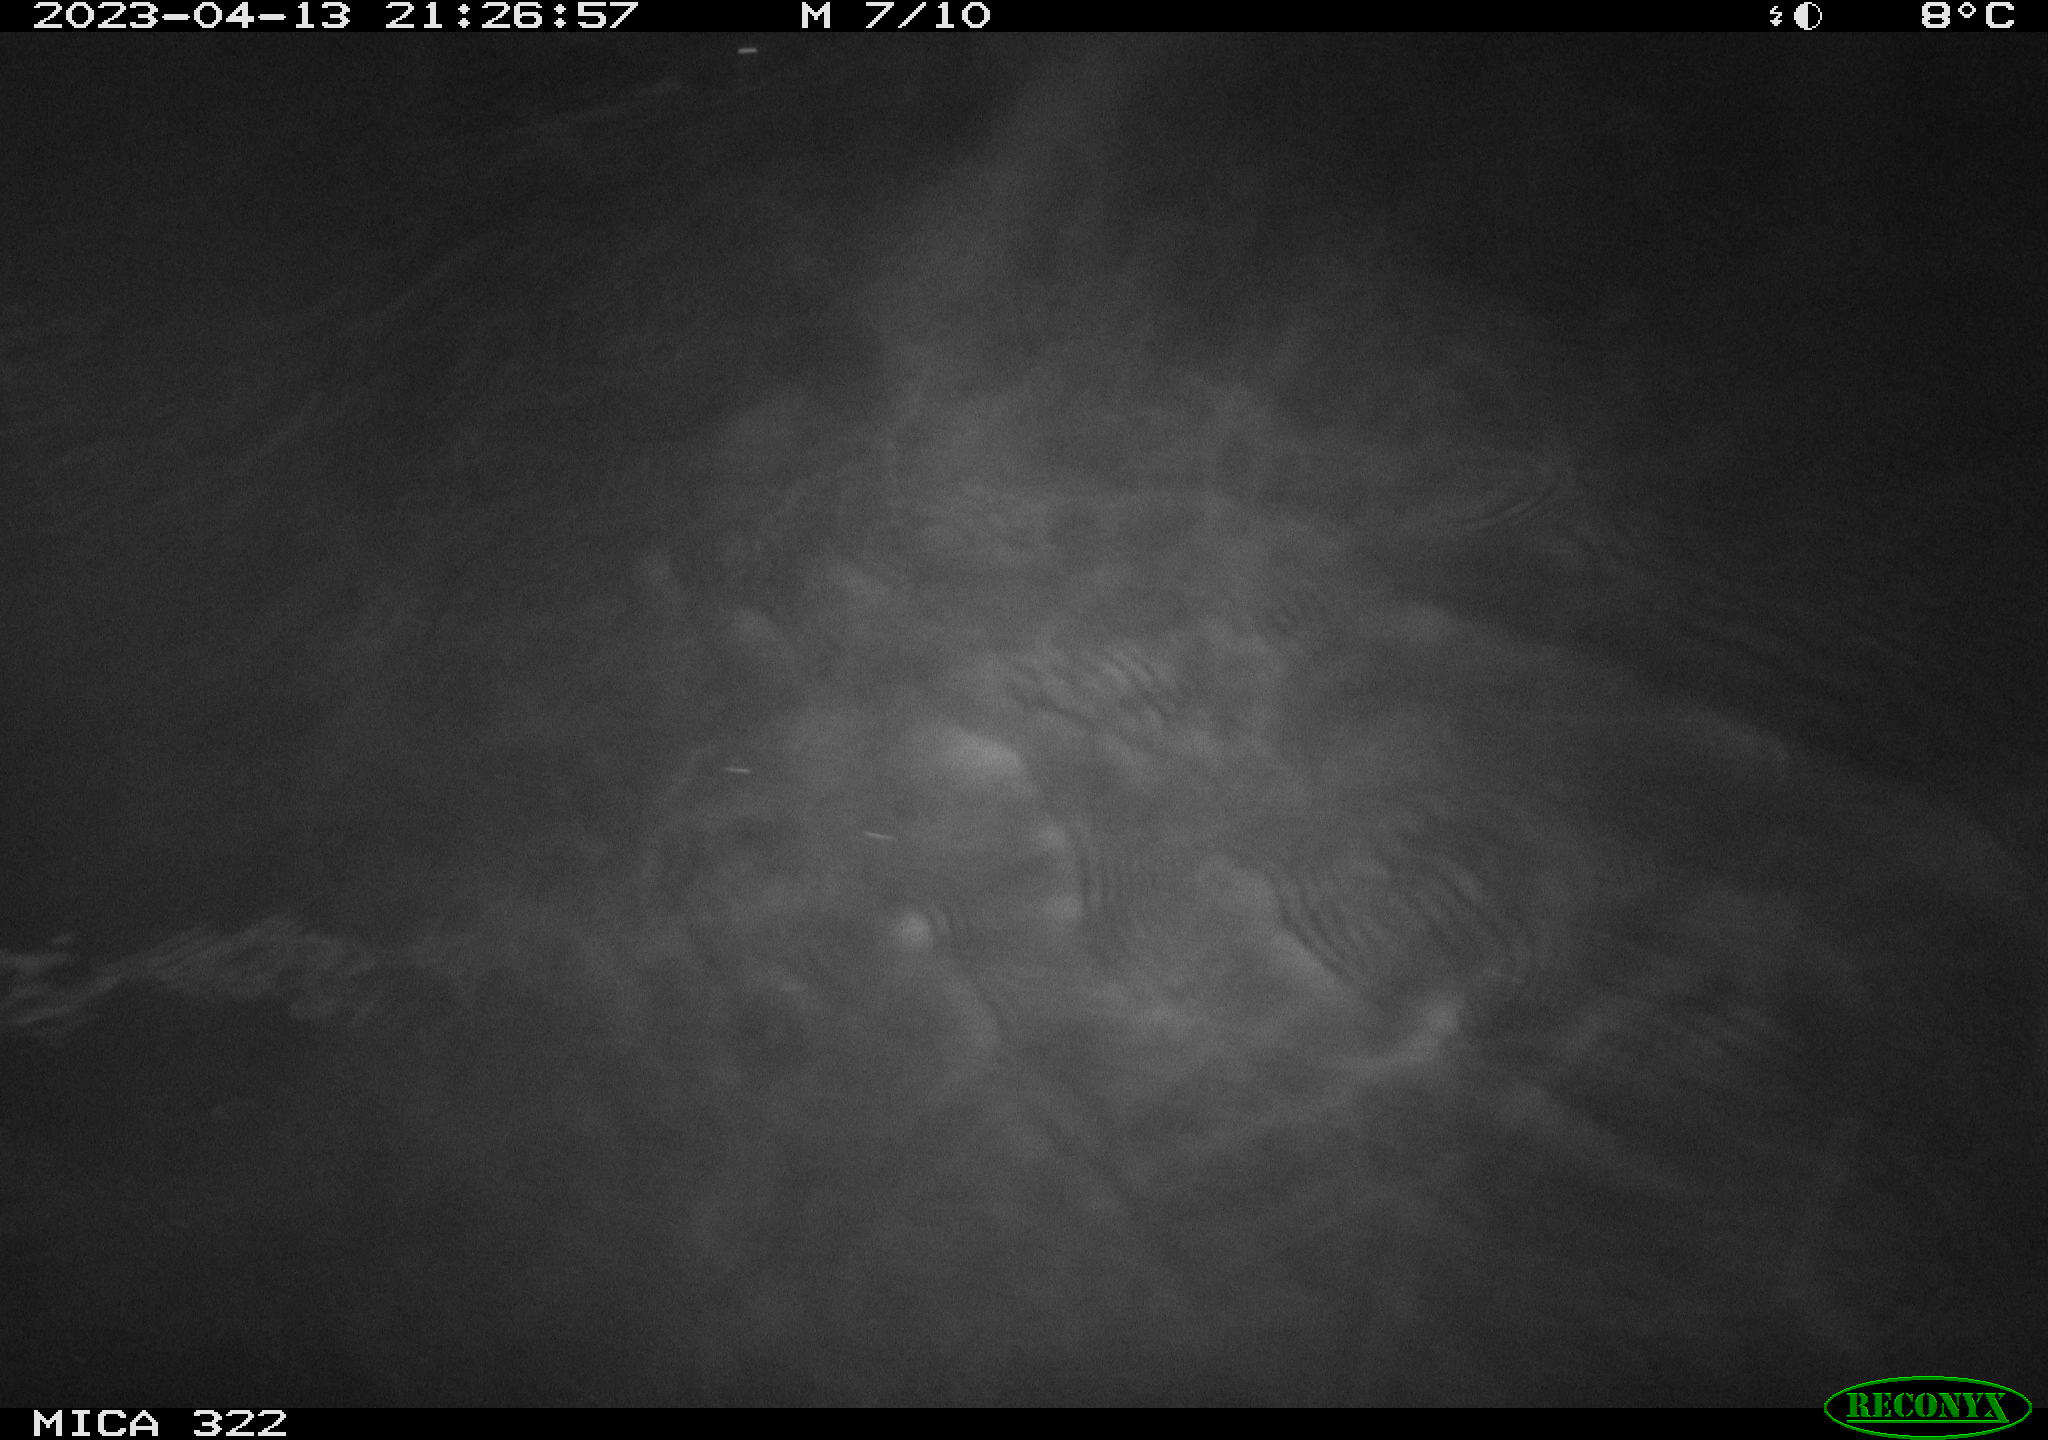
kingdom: Animalia
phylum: Chordata
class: Mammalia
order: Rodentia
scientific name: Rodentia
